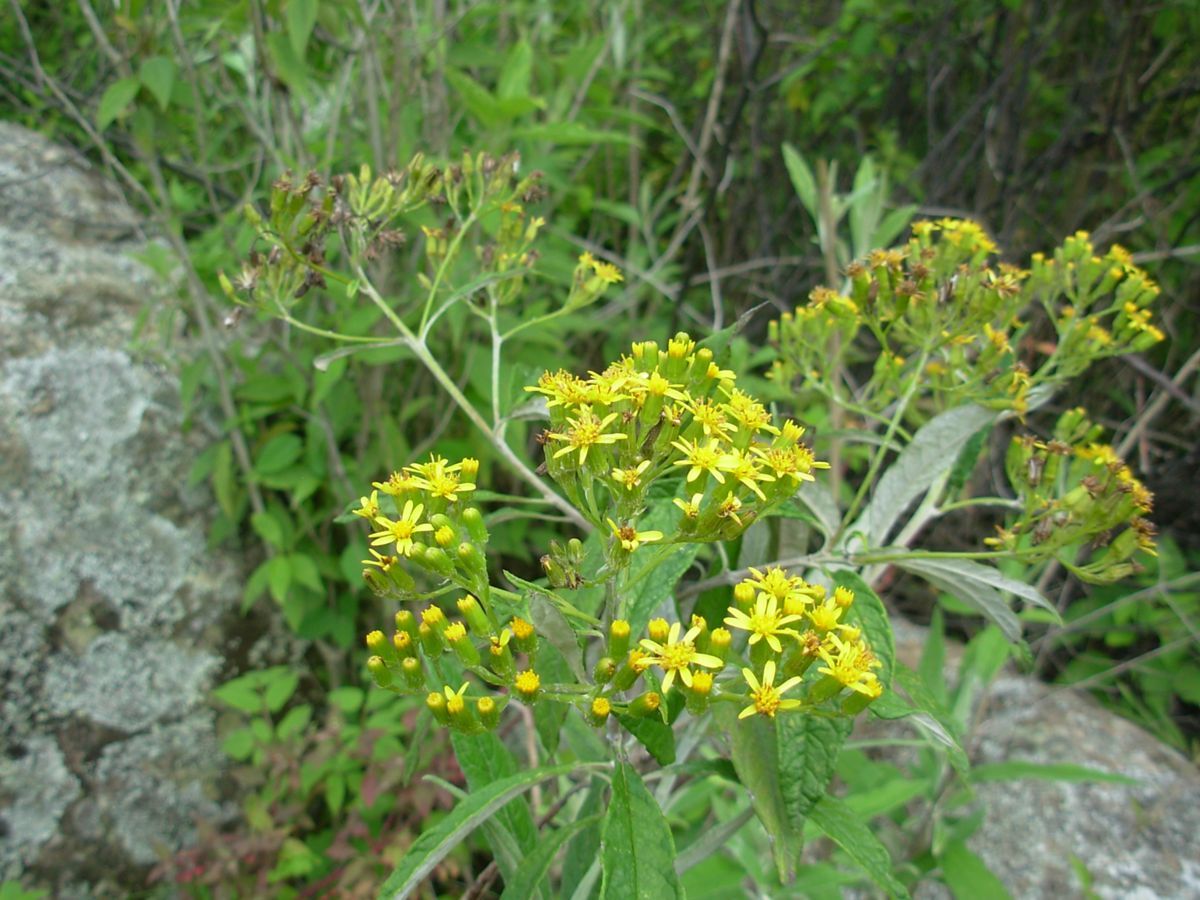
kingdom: Plantae
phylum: Tracheophyta
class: Magnoliopsida
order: Asterales
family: Asteraceae
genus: Zemisia
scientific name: Zemisia thomasii
